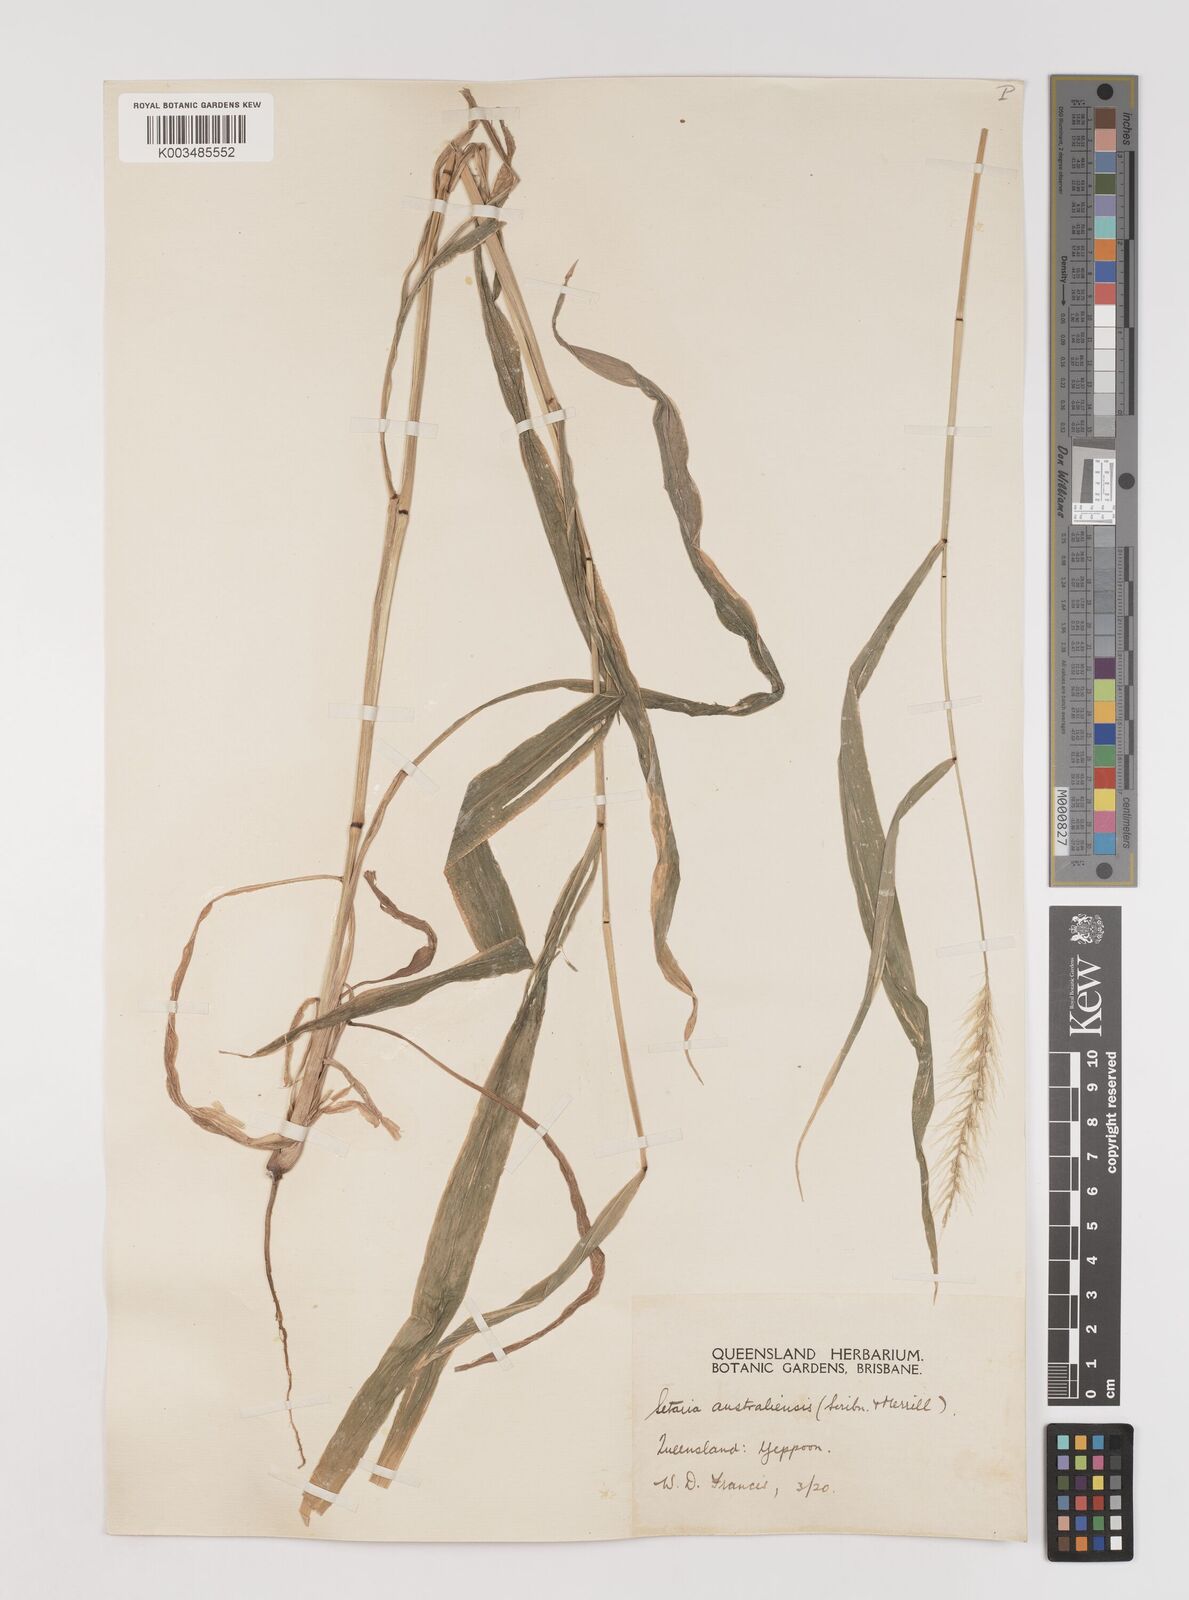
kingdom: Plantae
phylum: Tracheophyta
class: Liliopsida
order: Poales
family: Poaceae
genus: Setaria
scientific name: Setaria
